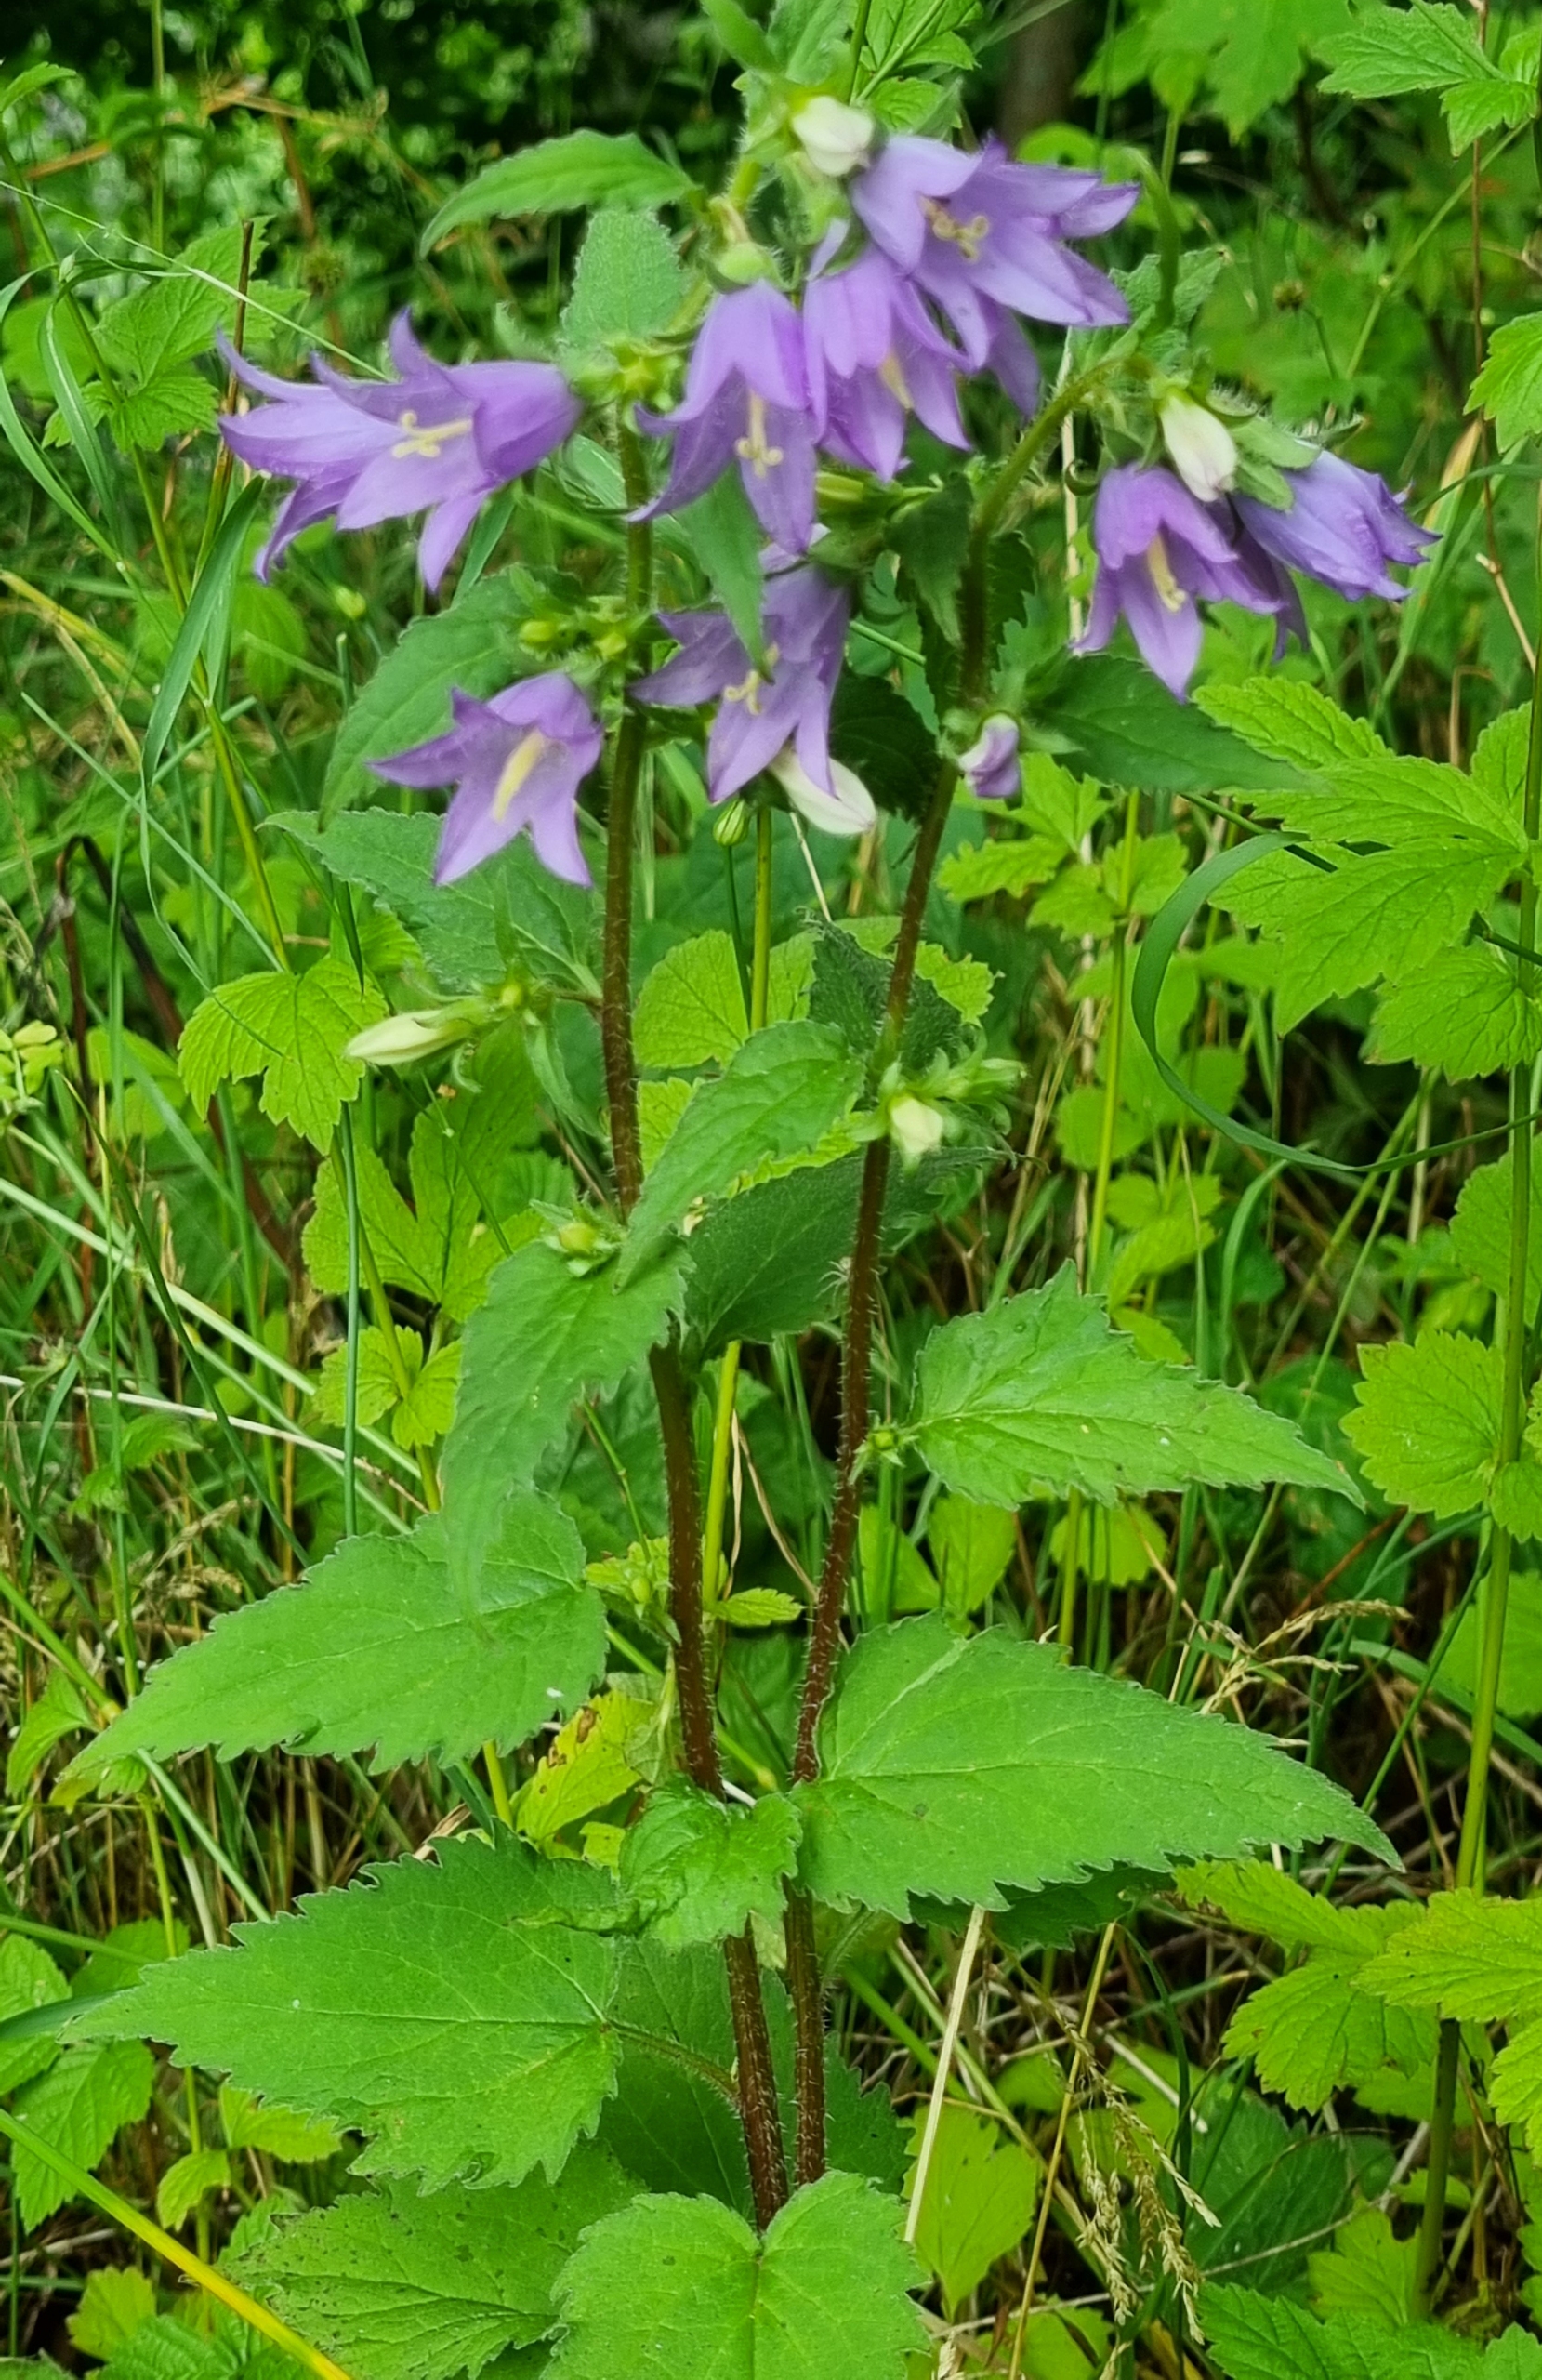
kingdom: Plantae
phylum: Tracheophyta
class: Magnoliopsida
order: Asterales
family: Campanulaceae
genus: Campanula
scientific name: Campanula trachelium
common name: Nælde-klokke
